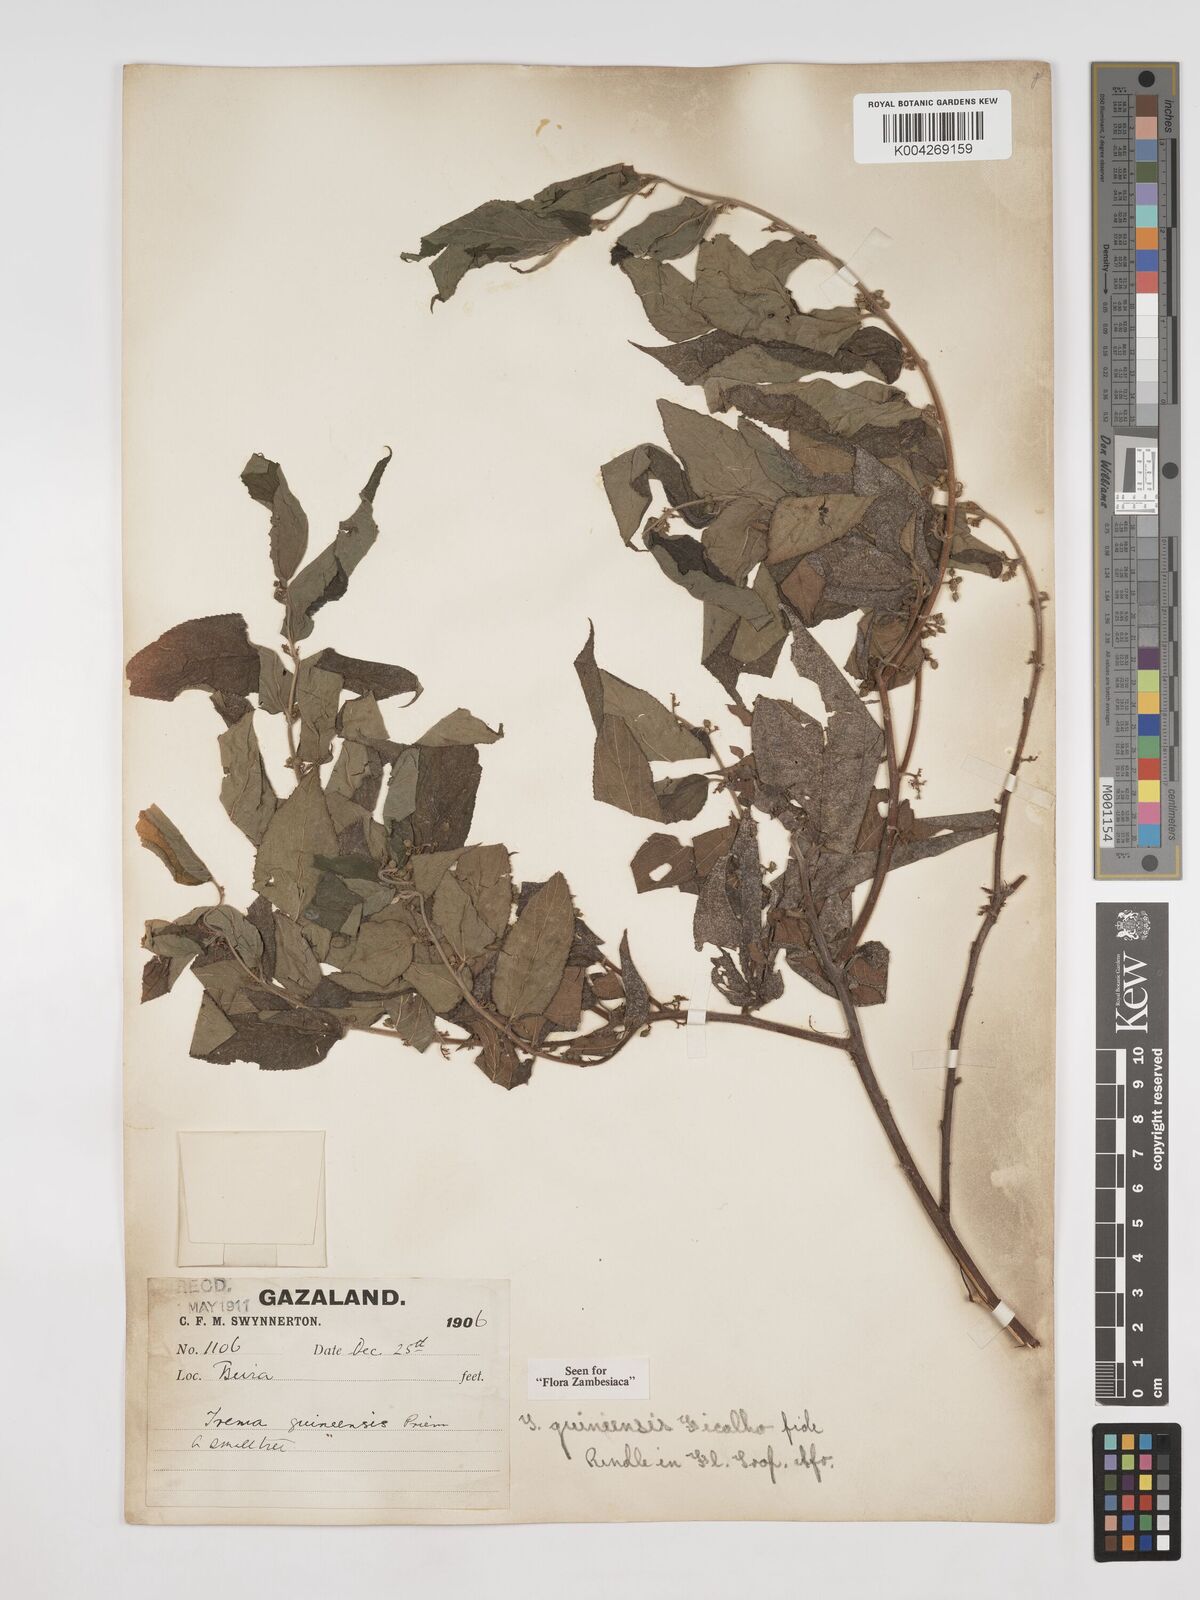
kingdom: Plantae
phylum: Tracheophyta
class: Magnoliopsida
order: Rosales
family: Cannabaceae
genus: Trema
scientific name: Trema orientale
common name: Indian charcoal tree
